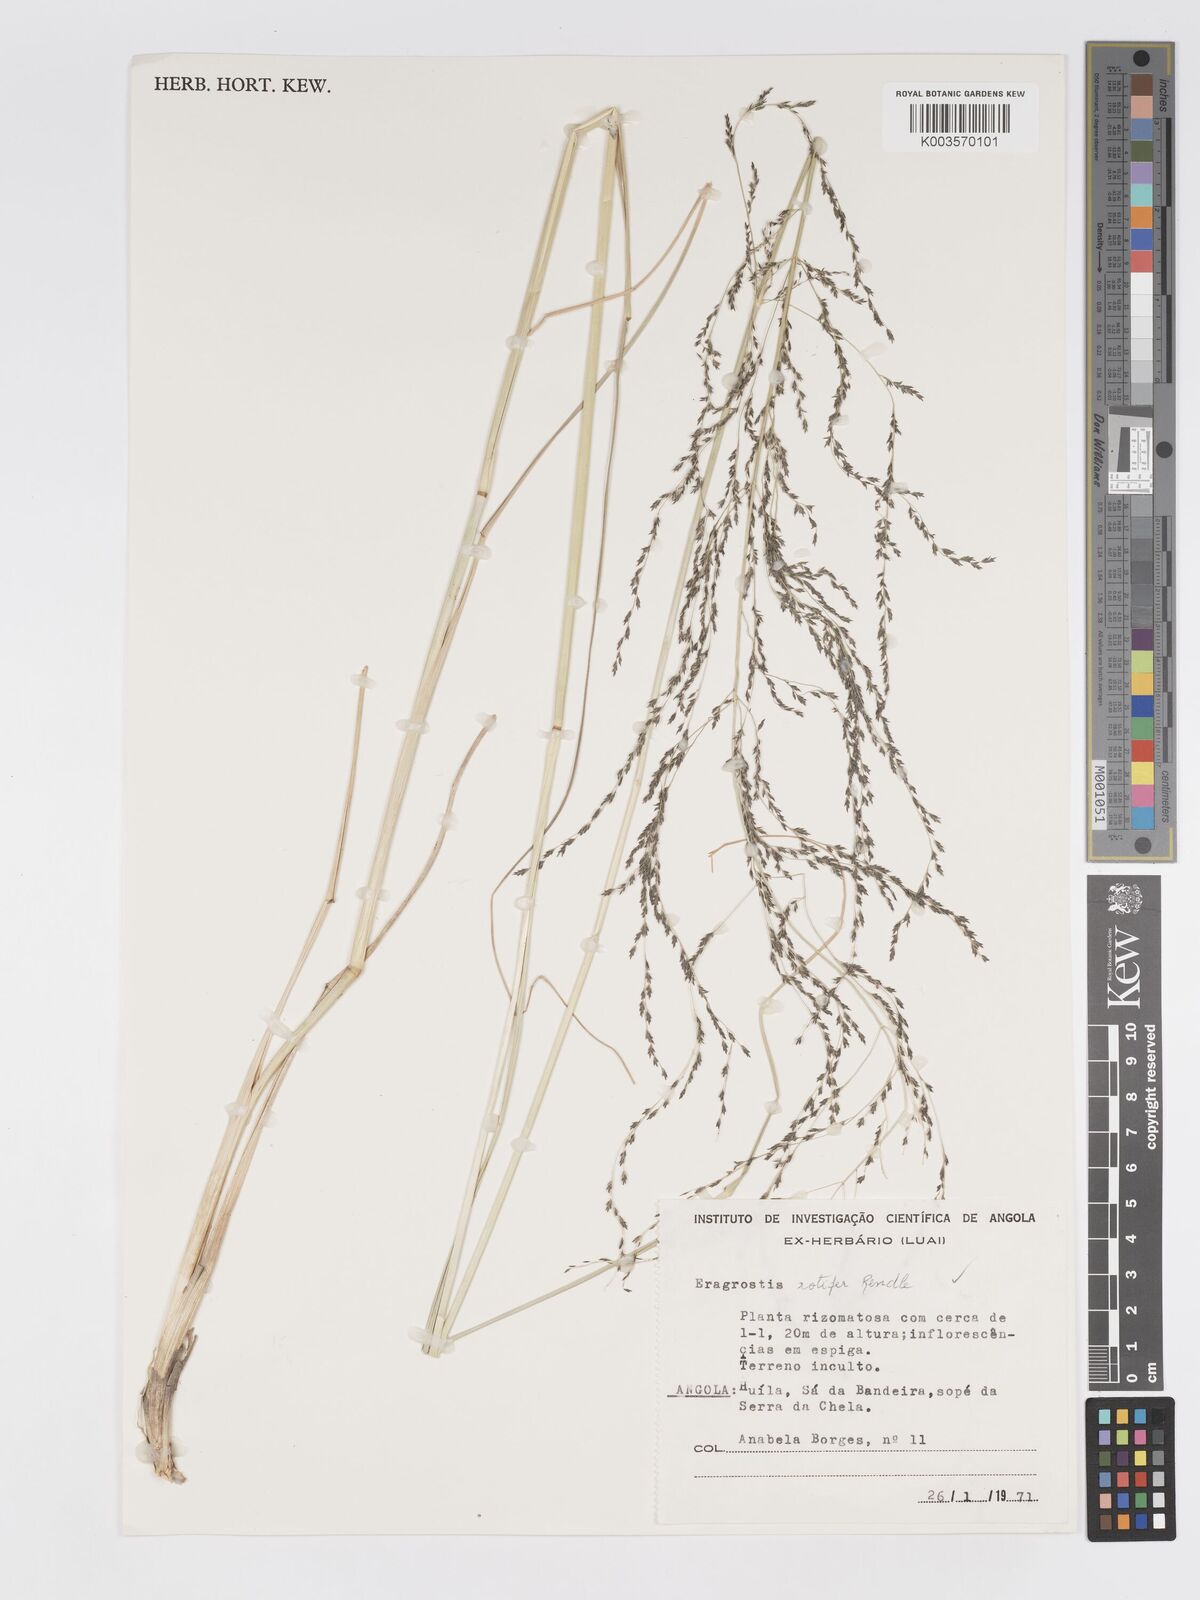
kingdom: Plantae
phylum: Tracheophyta
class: Liliopsida
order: Poales
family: Poaceae
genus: Eragrostis
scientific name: Eragrostis rotifer
